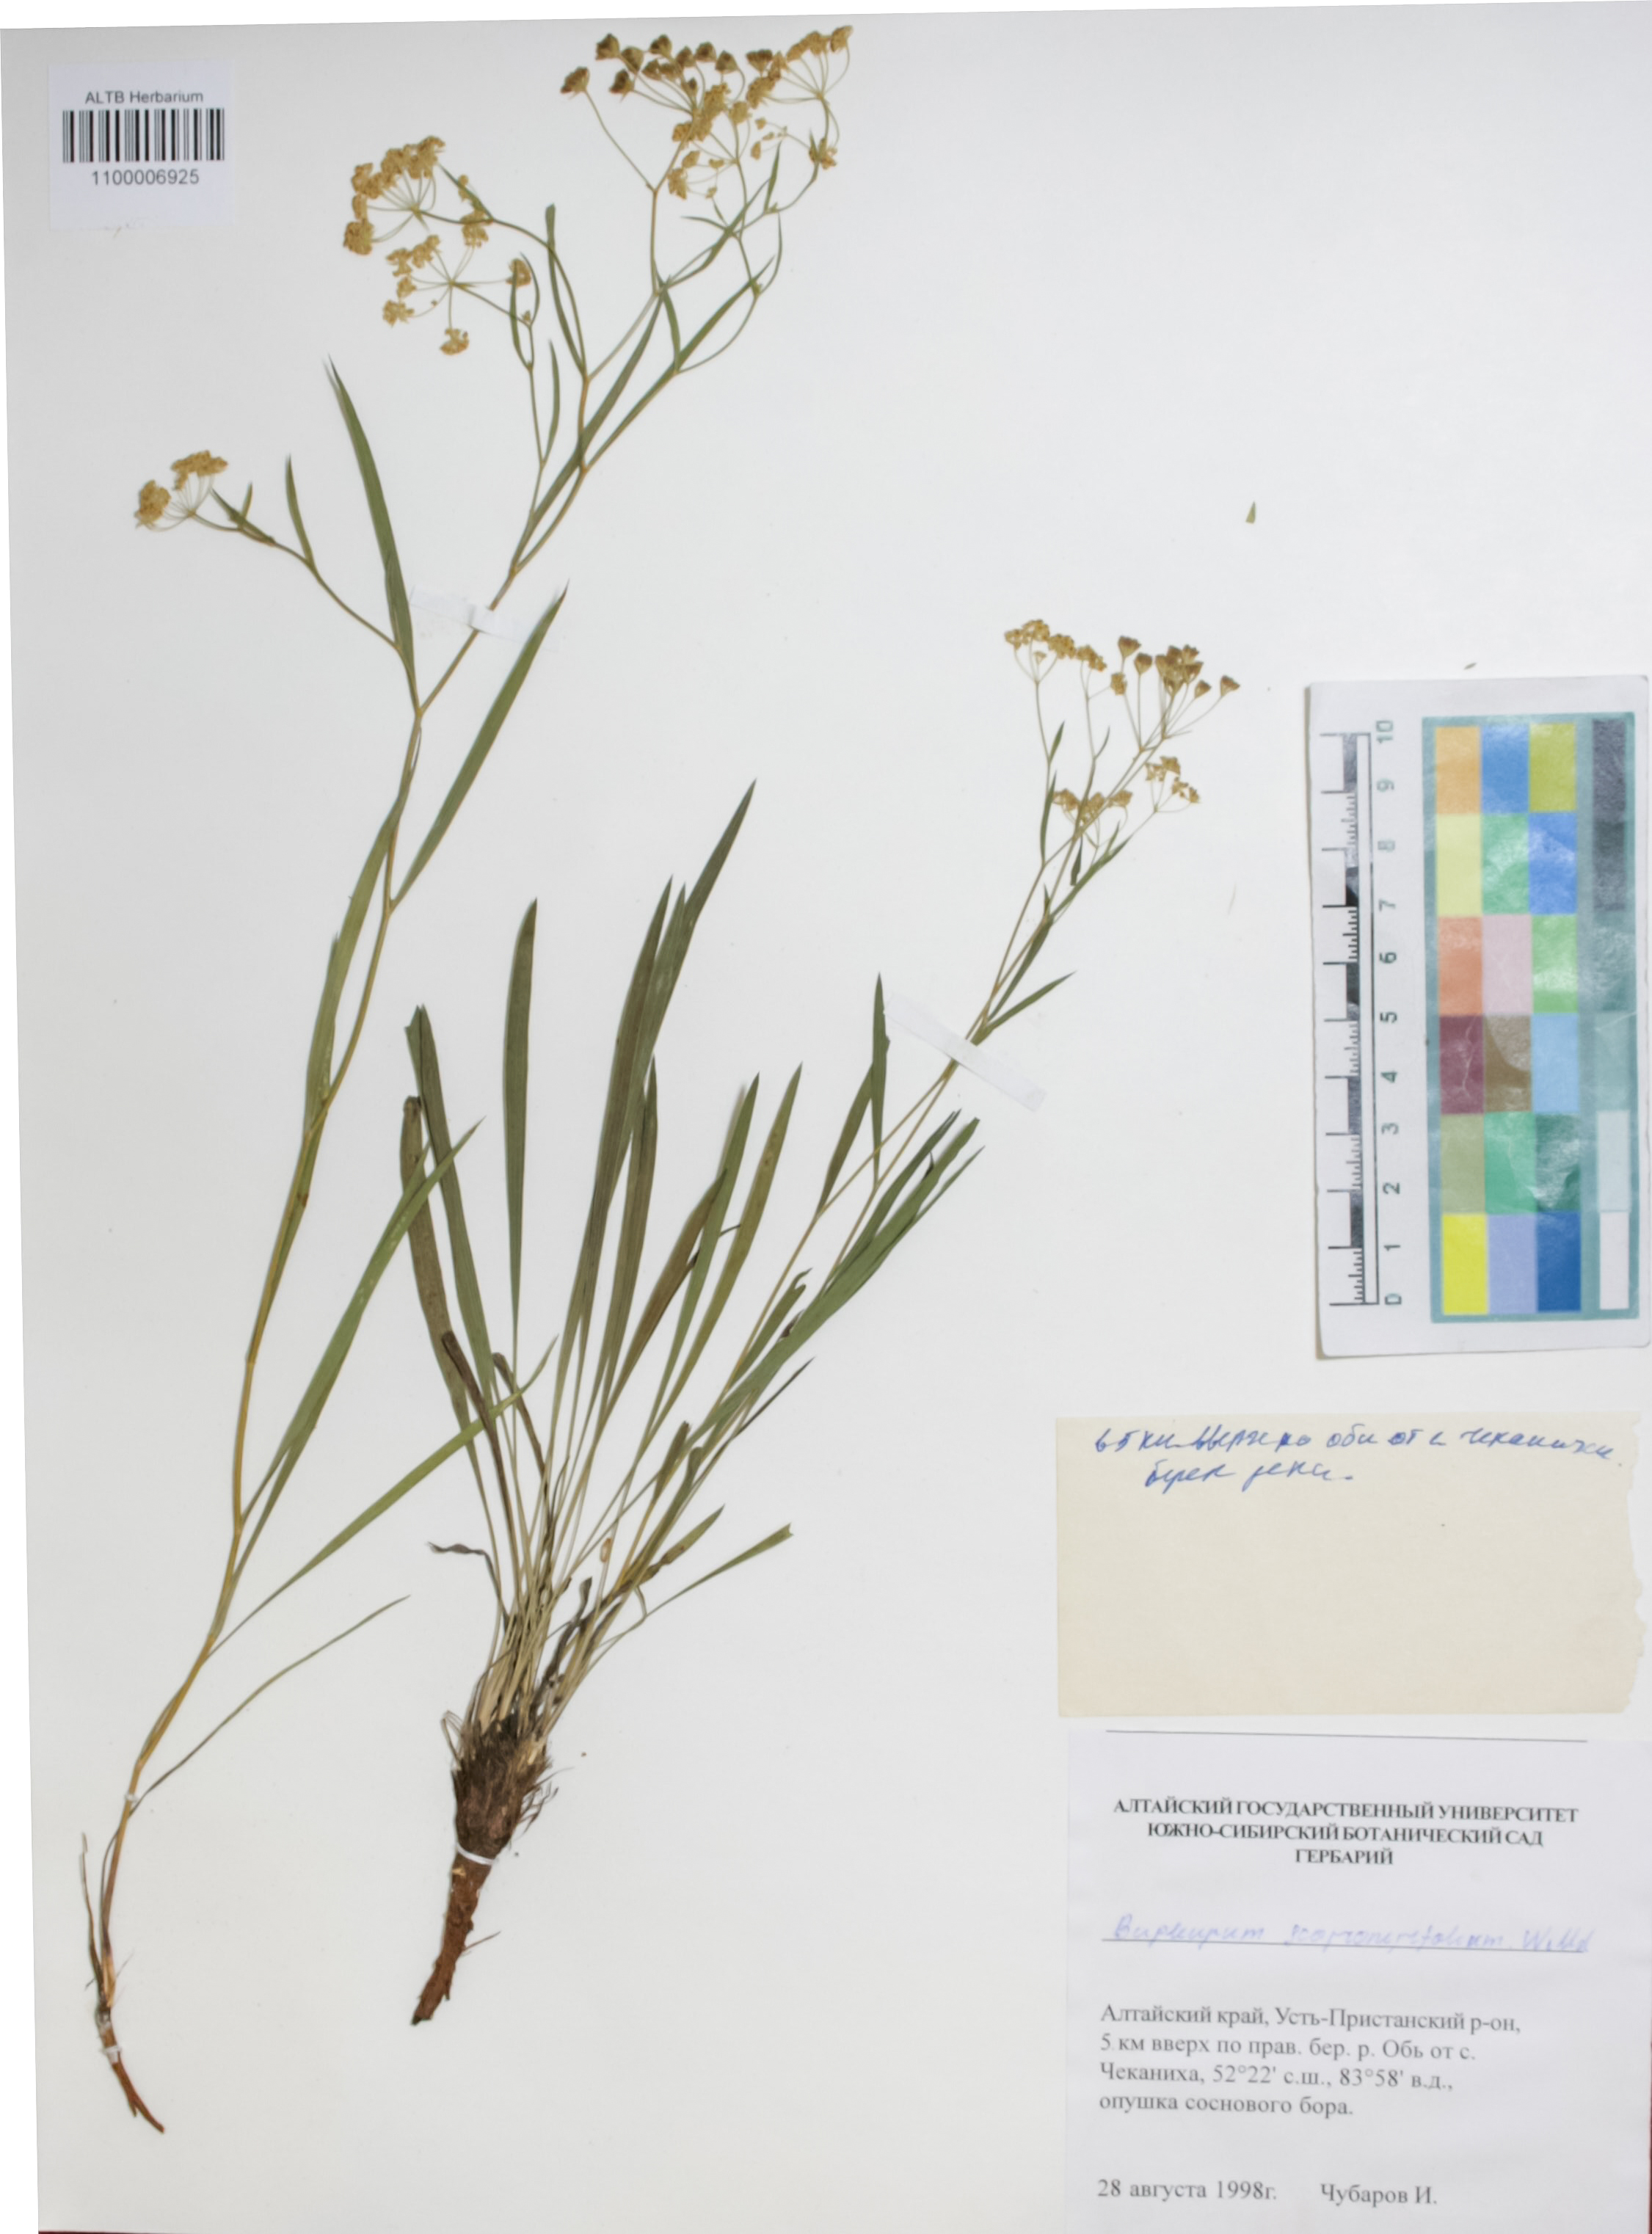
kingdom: Plantae
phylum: Tracheophyta
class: Magnoliopsida
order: Apiales
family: Apiaceae
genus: Bupleurum
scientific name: Bupleurum scorzonerifolium
